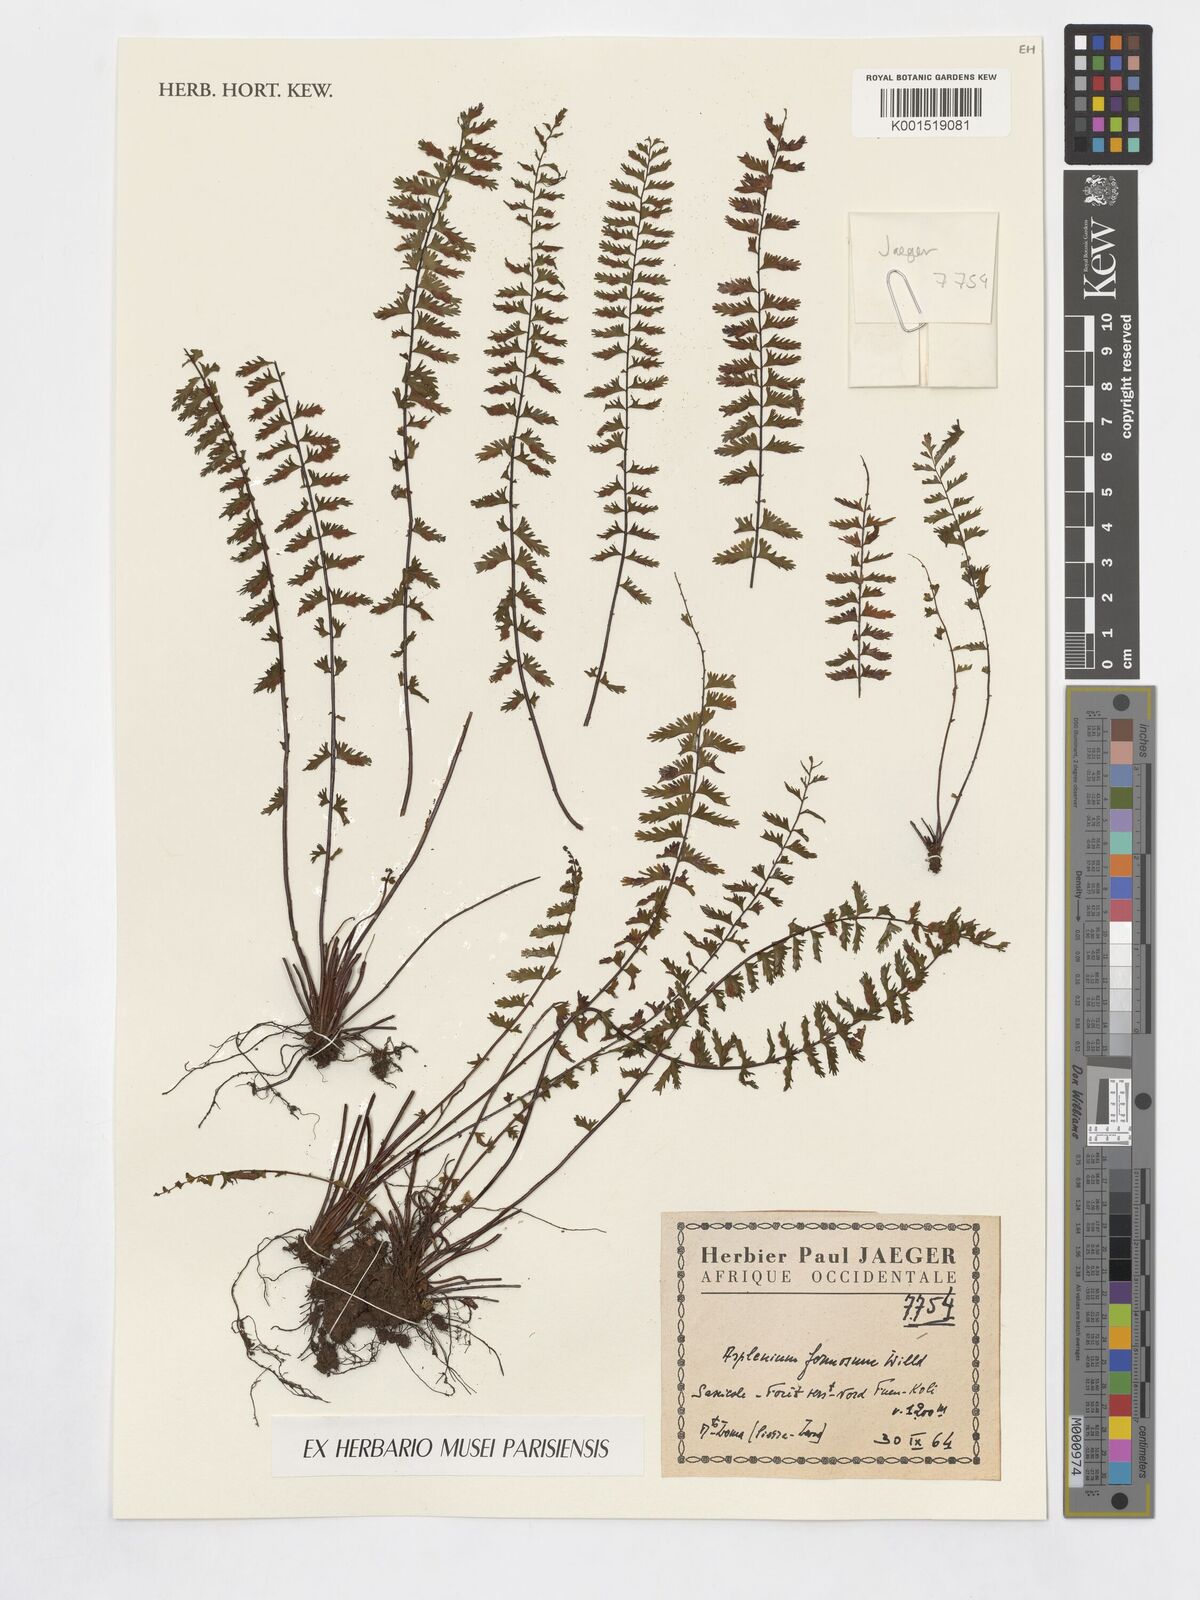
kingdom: Plantae
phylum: Tracheophyta
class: Polypodiopsida
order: Polypodiales
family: Aspleniaceae
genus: Asplenium
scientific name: Asplenium formosum
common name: Showy spleenwort
